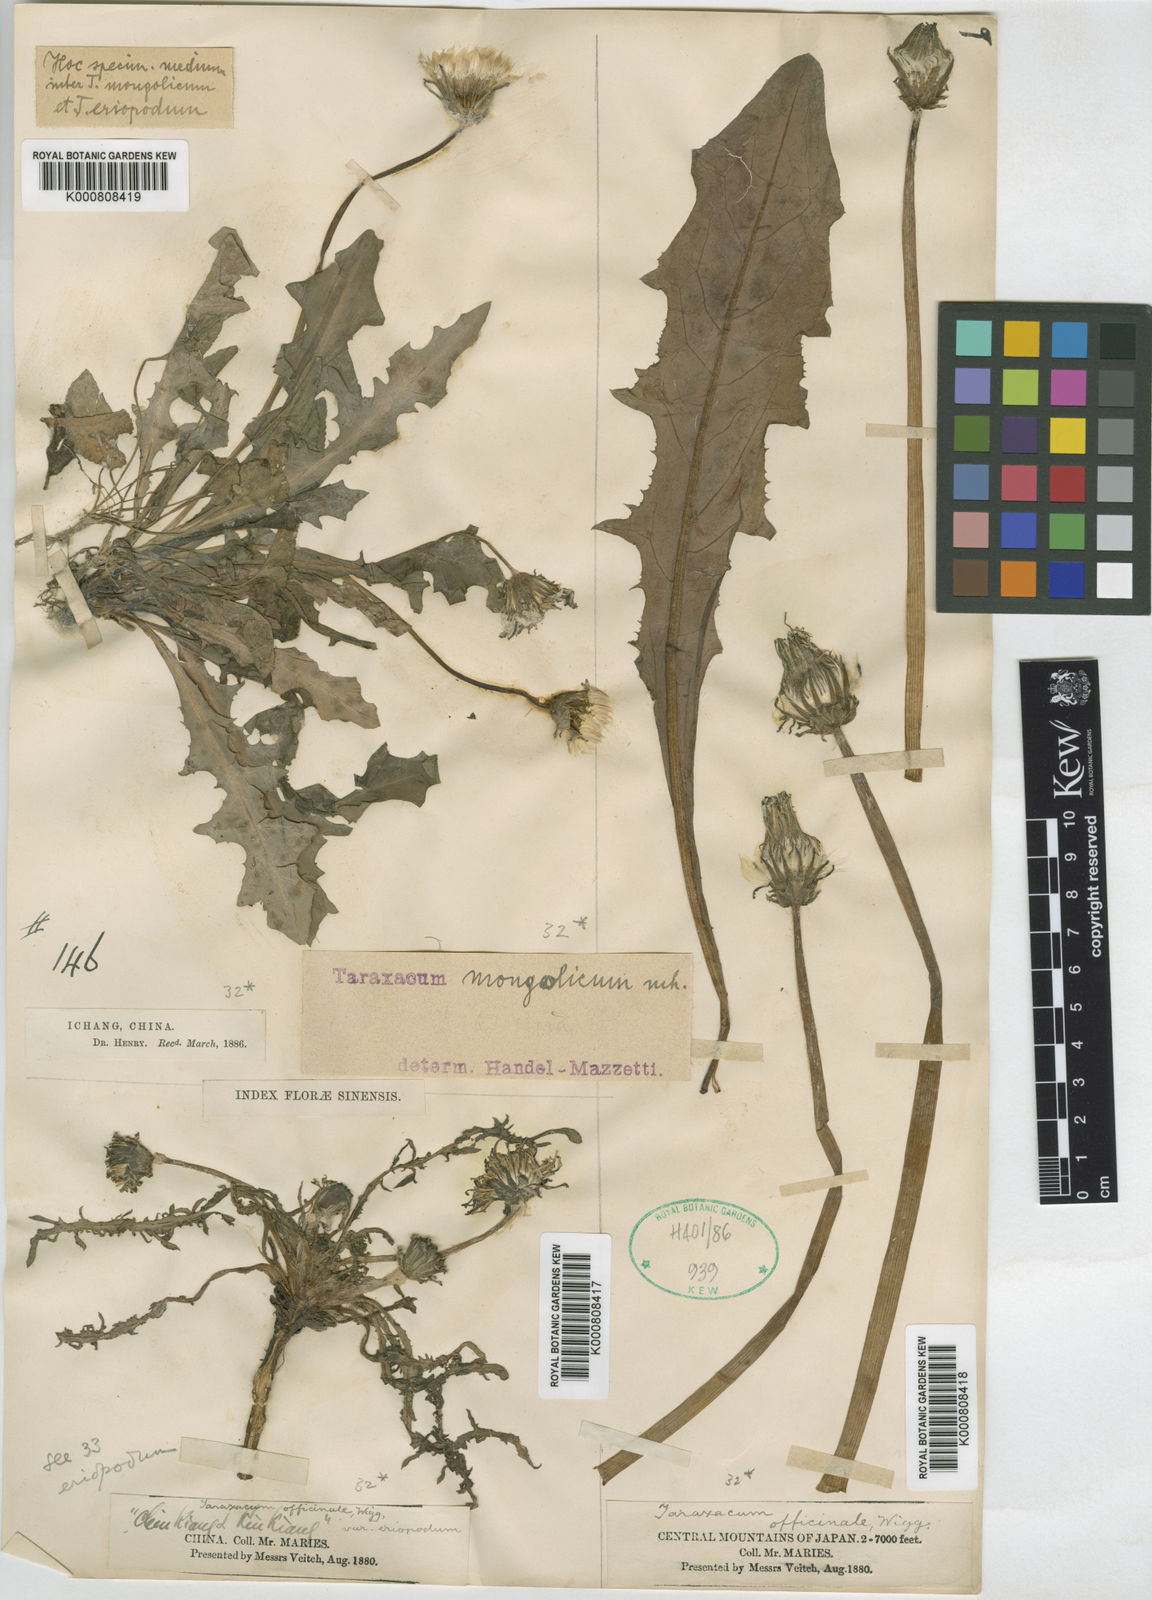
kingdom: Plantae
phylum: Tracheophyta
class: Magnoliopsida
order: Asterales
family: Asteraceae
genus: Taraxacum
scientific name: Taraxacum
